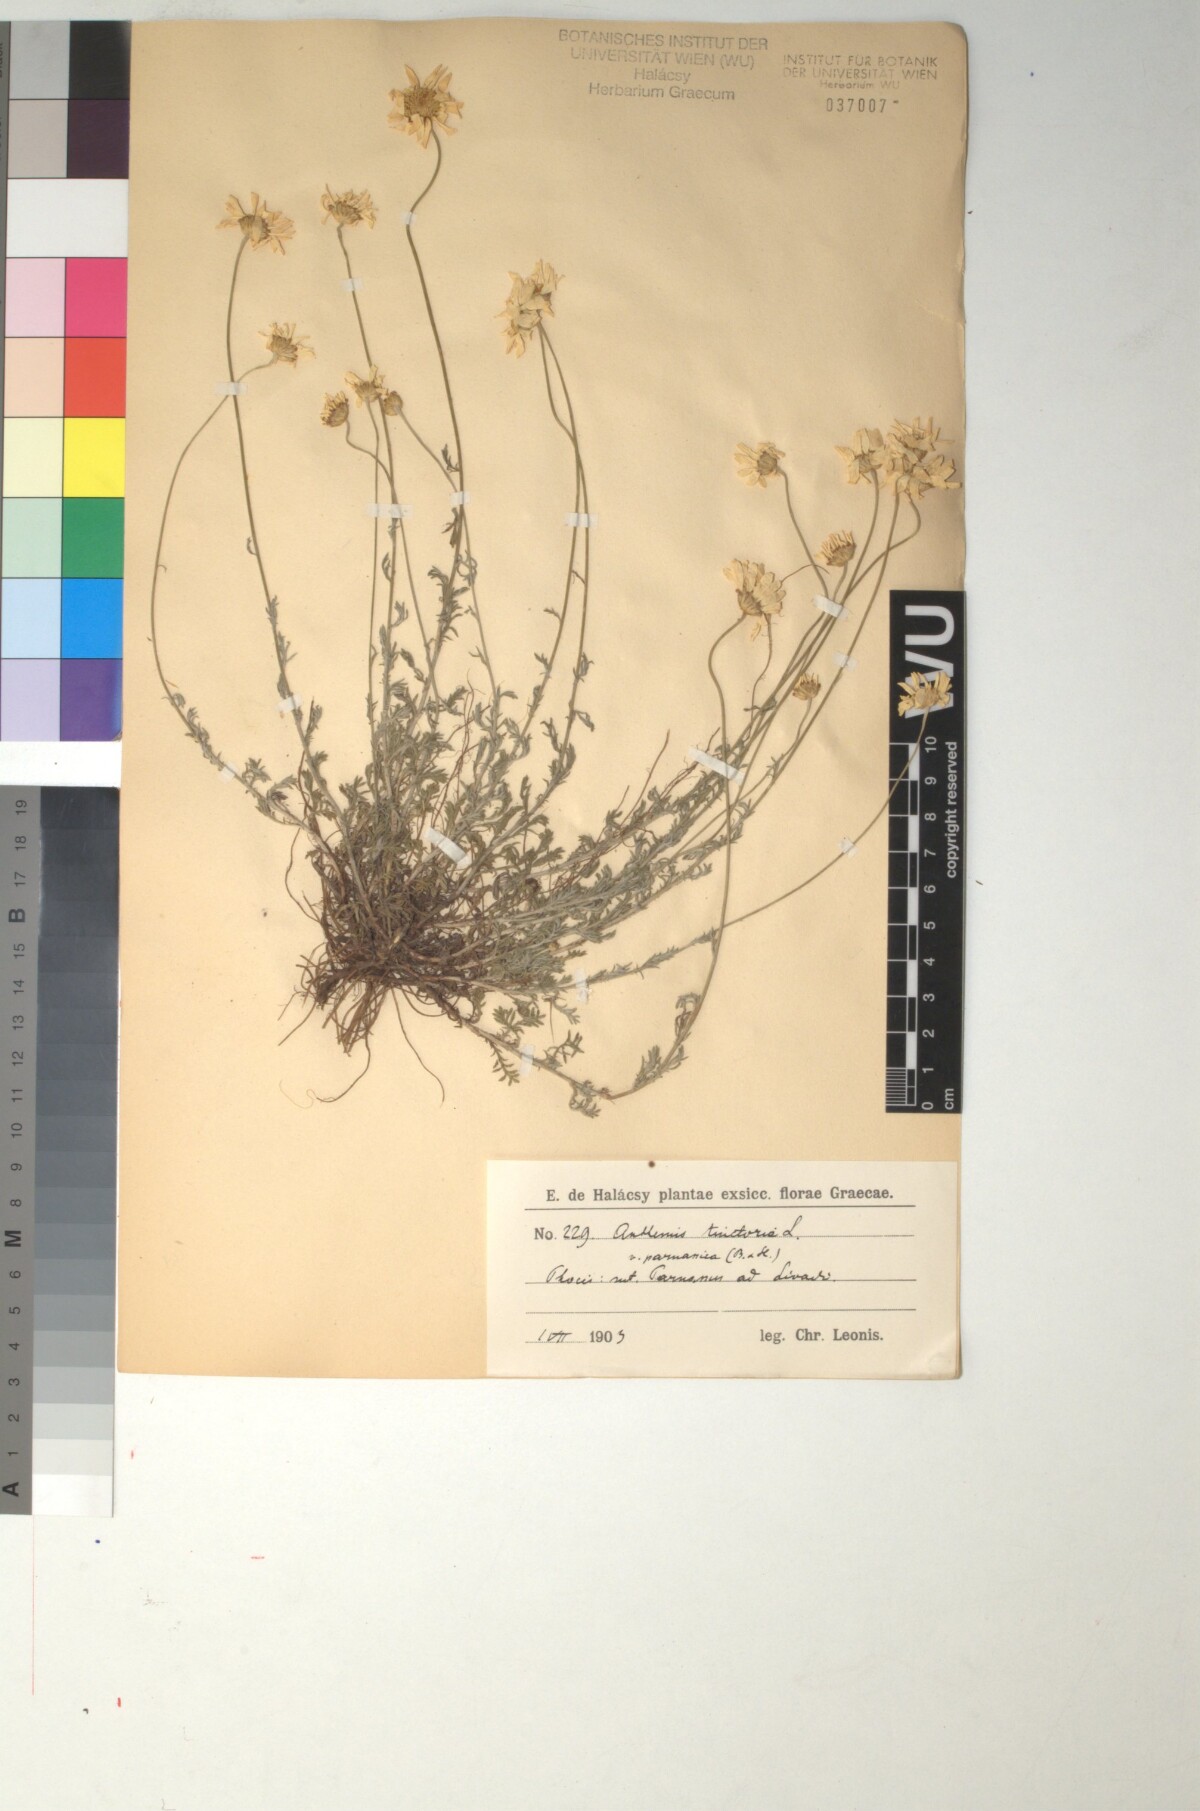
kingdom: Plantae
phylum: Tracheophyta
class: Magnoliopsida
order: Asterales
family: Asteraceae
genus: Cota
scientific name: Cota tinctoria
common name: Golden chamomile
